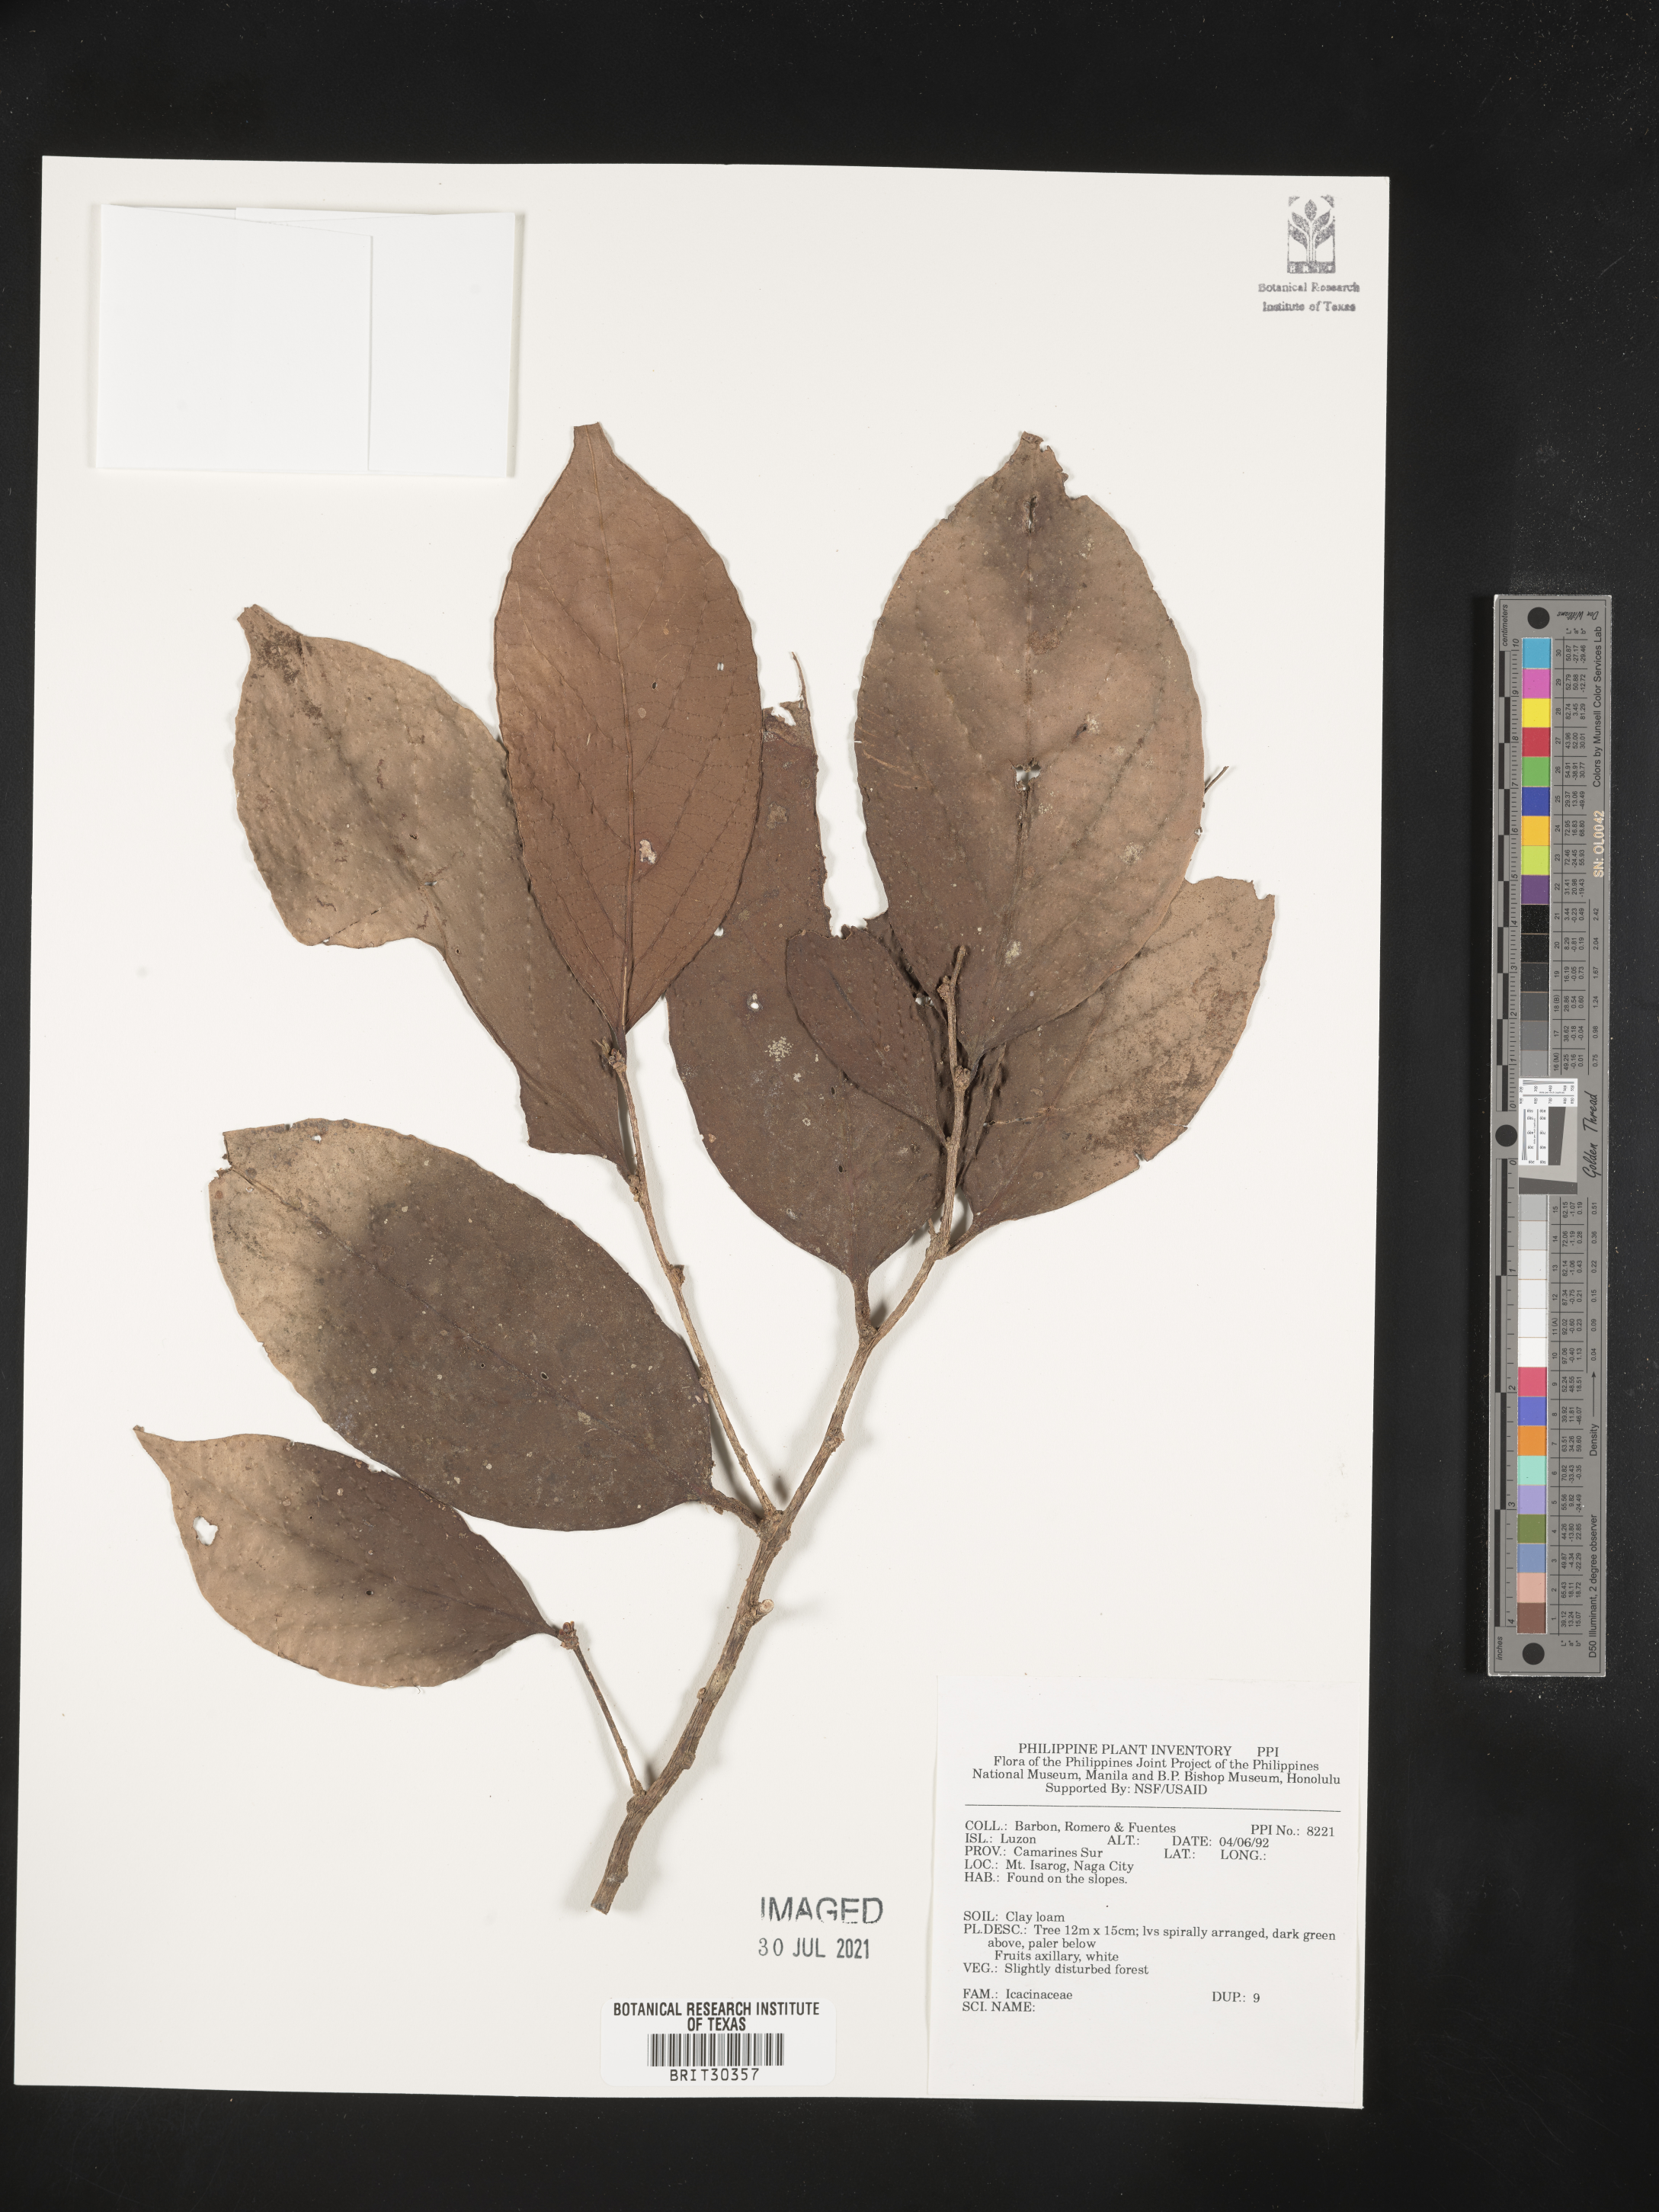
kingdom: Plantae
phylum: Tracheophyta
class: Magnoliopsida
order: Icacinales
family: Icacinaceae
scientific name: Icacinaceae
